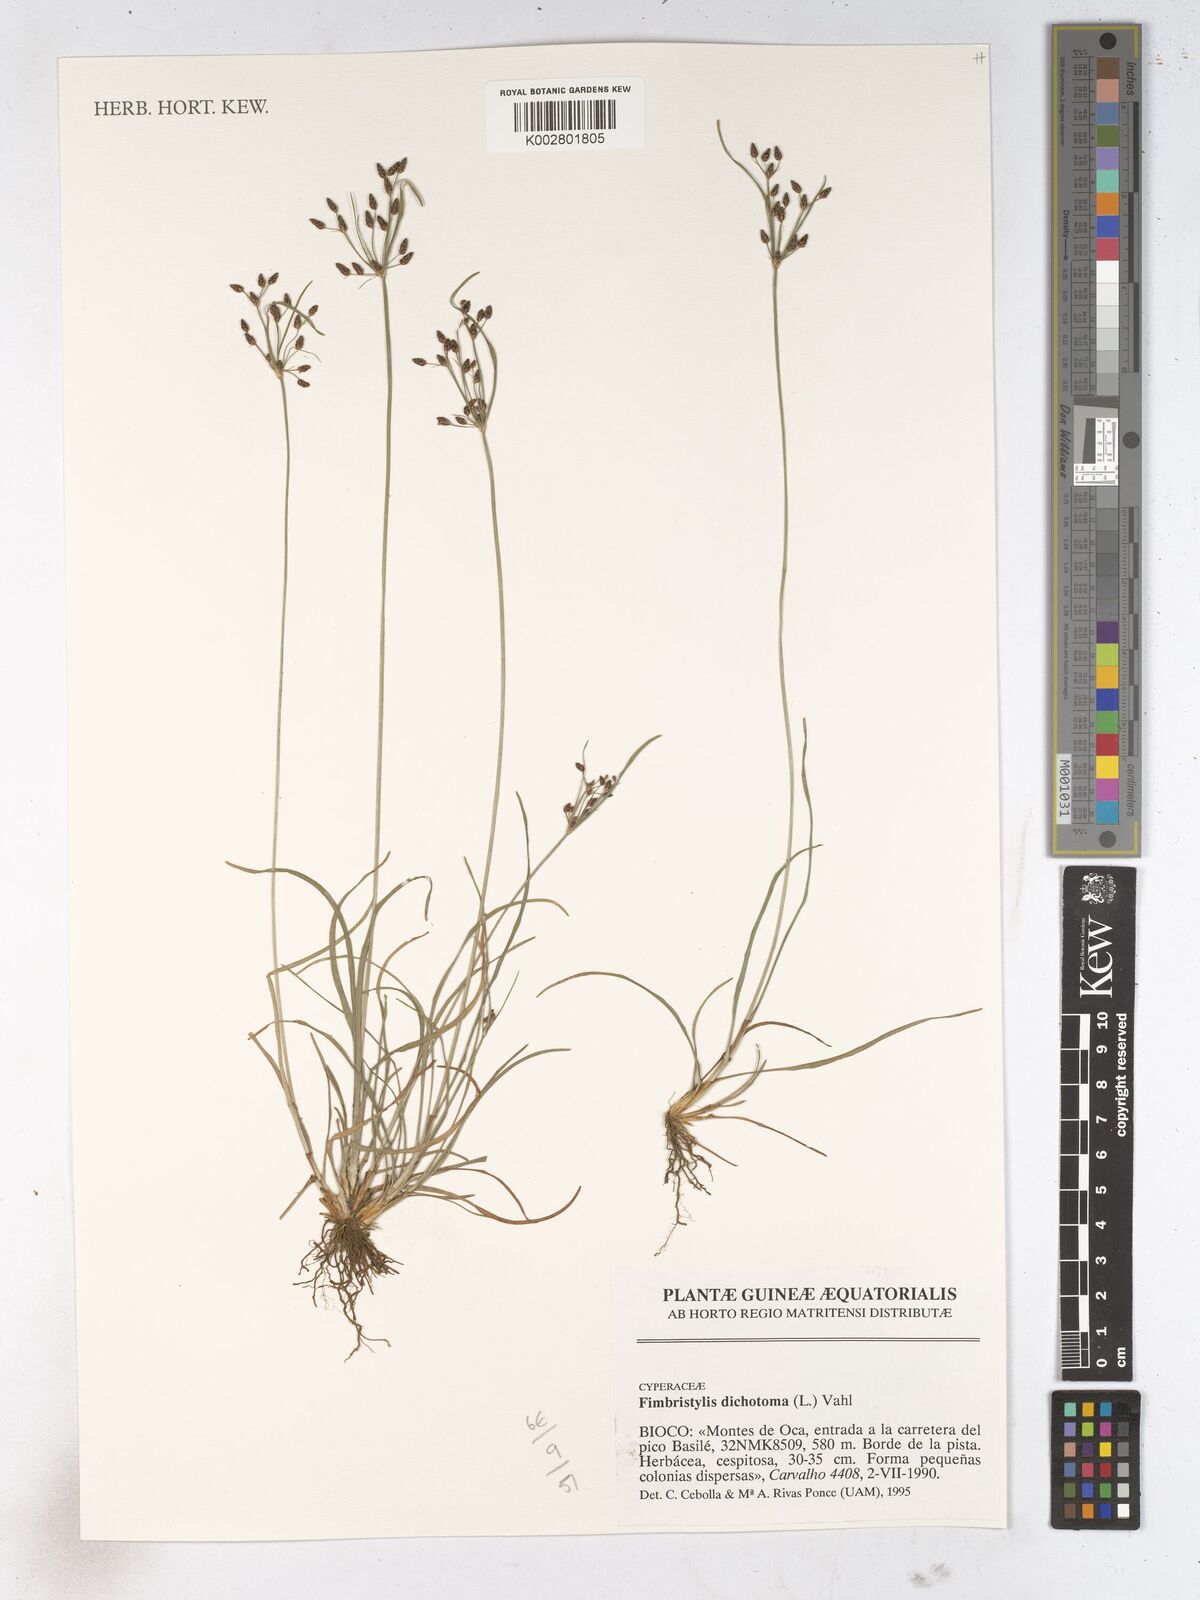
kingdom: Plantae
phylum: Tracheophyta
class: Liliopsida
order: Poales
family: Cyperaceae
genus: Fimbristylis
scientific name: Fimbristylis dichotoma
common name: Forked fimbry
